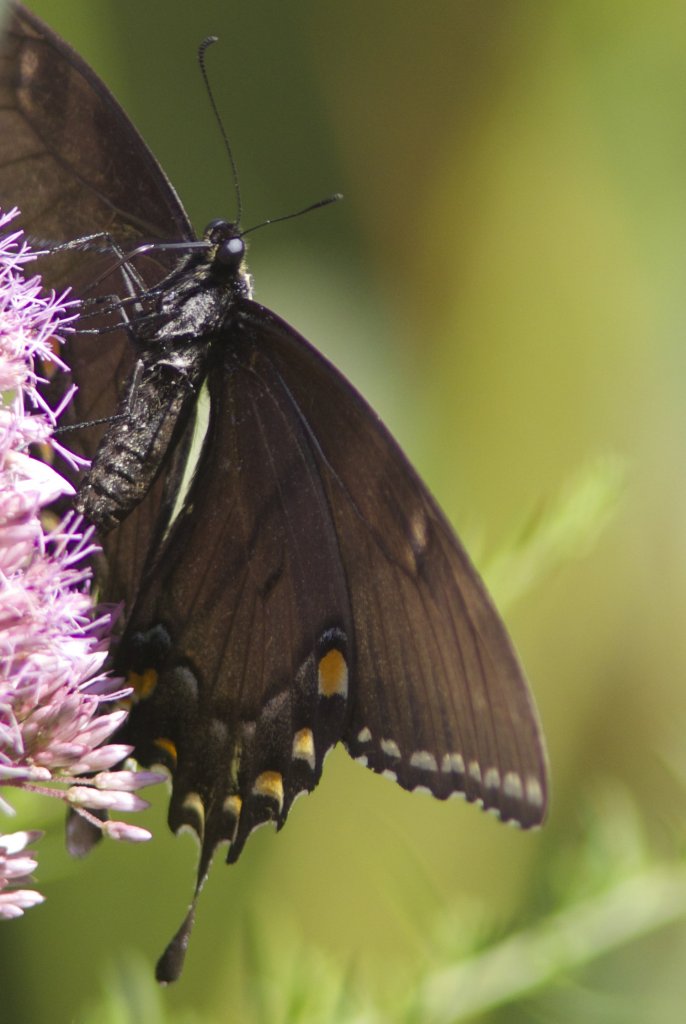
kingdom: Animalia
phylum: Arthropoda
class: Insecta
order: Lepidoptera
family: Papilionidae
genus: Pterourus
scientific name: Pterourus glaucus
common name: Eastern Tiger Swallowtail
